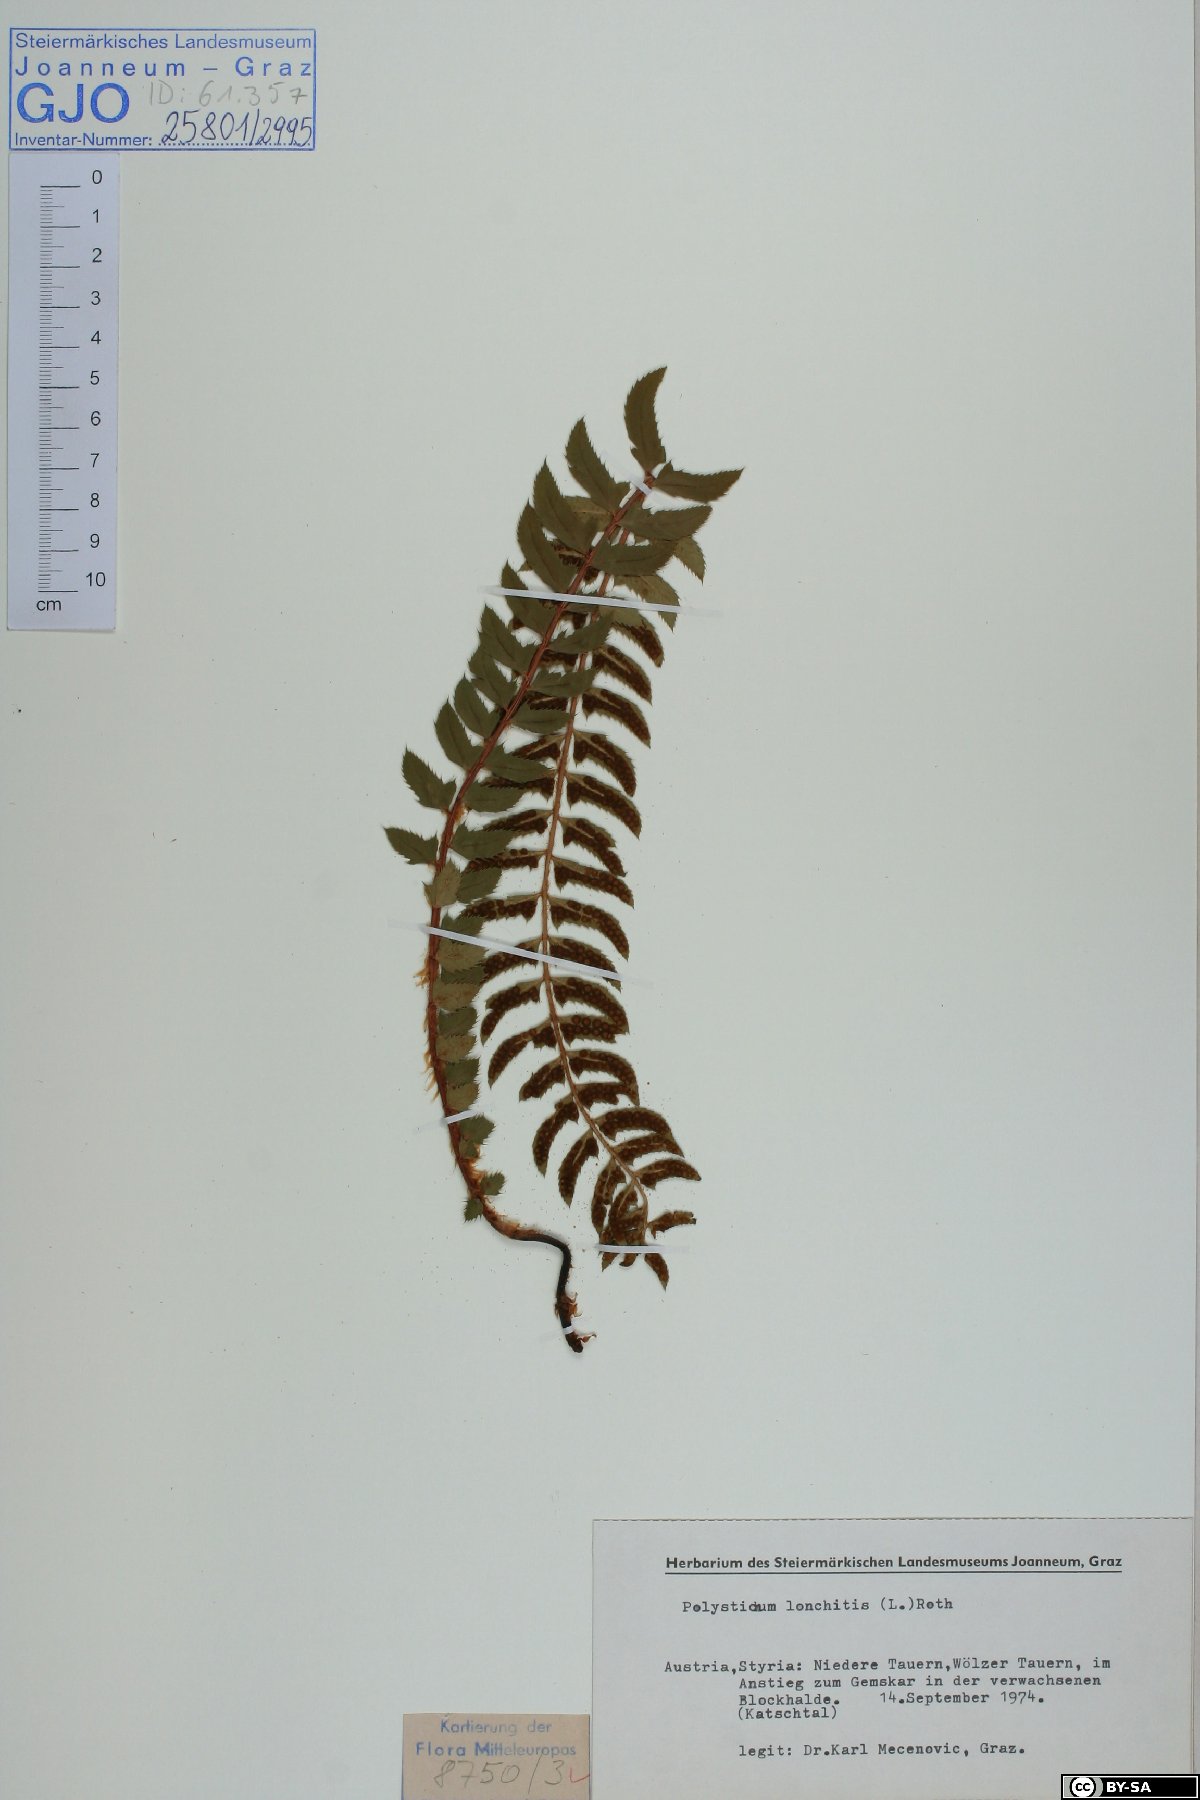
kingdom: Plantae
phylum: Tracheophyta
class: Polypodiopsida
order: Polypodiales
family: Dryopteridaceae
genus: Polystichum
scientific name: Polystichum lonchitis
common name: Holly fern
